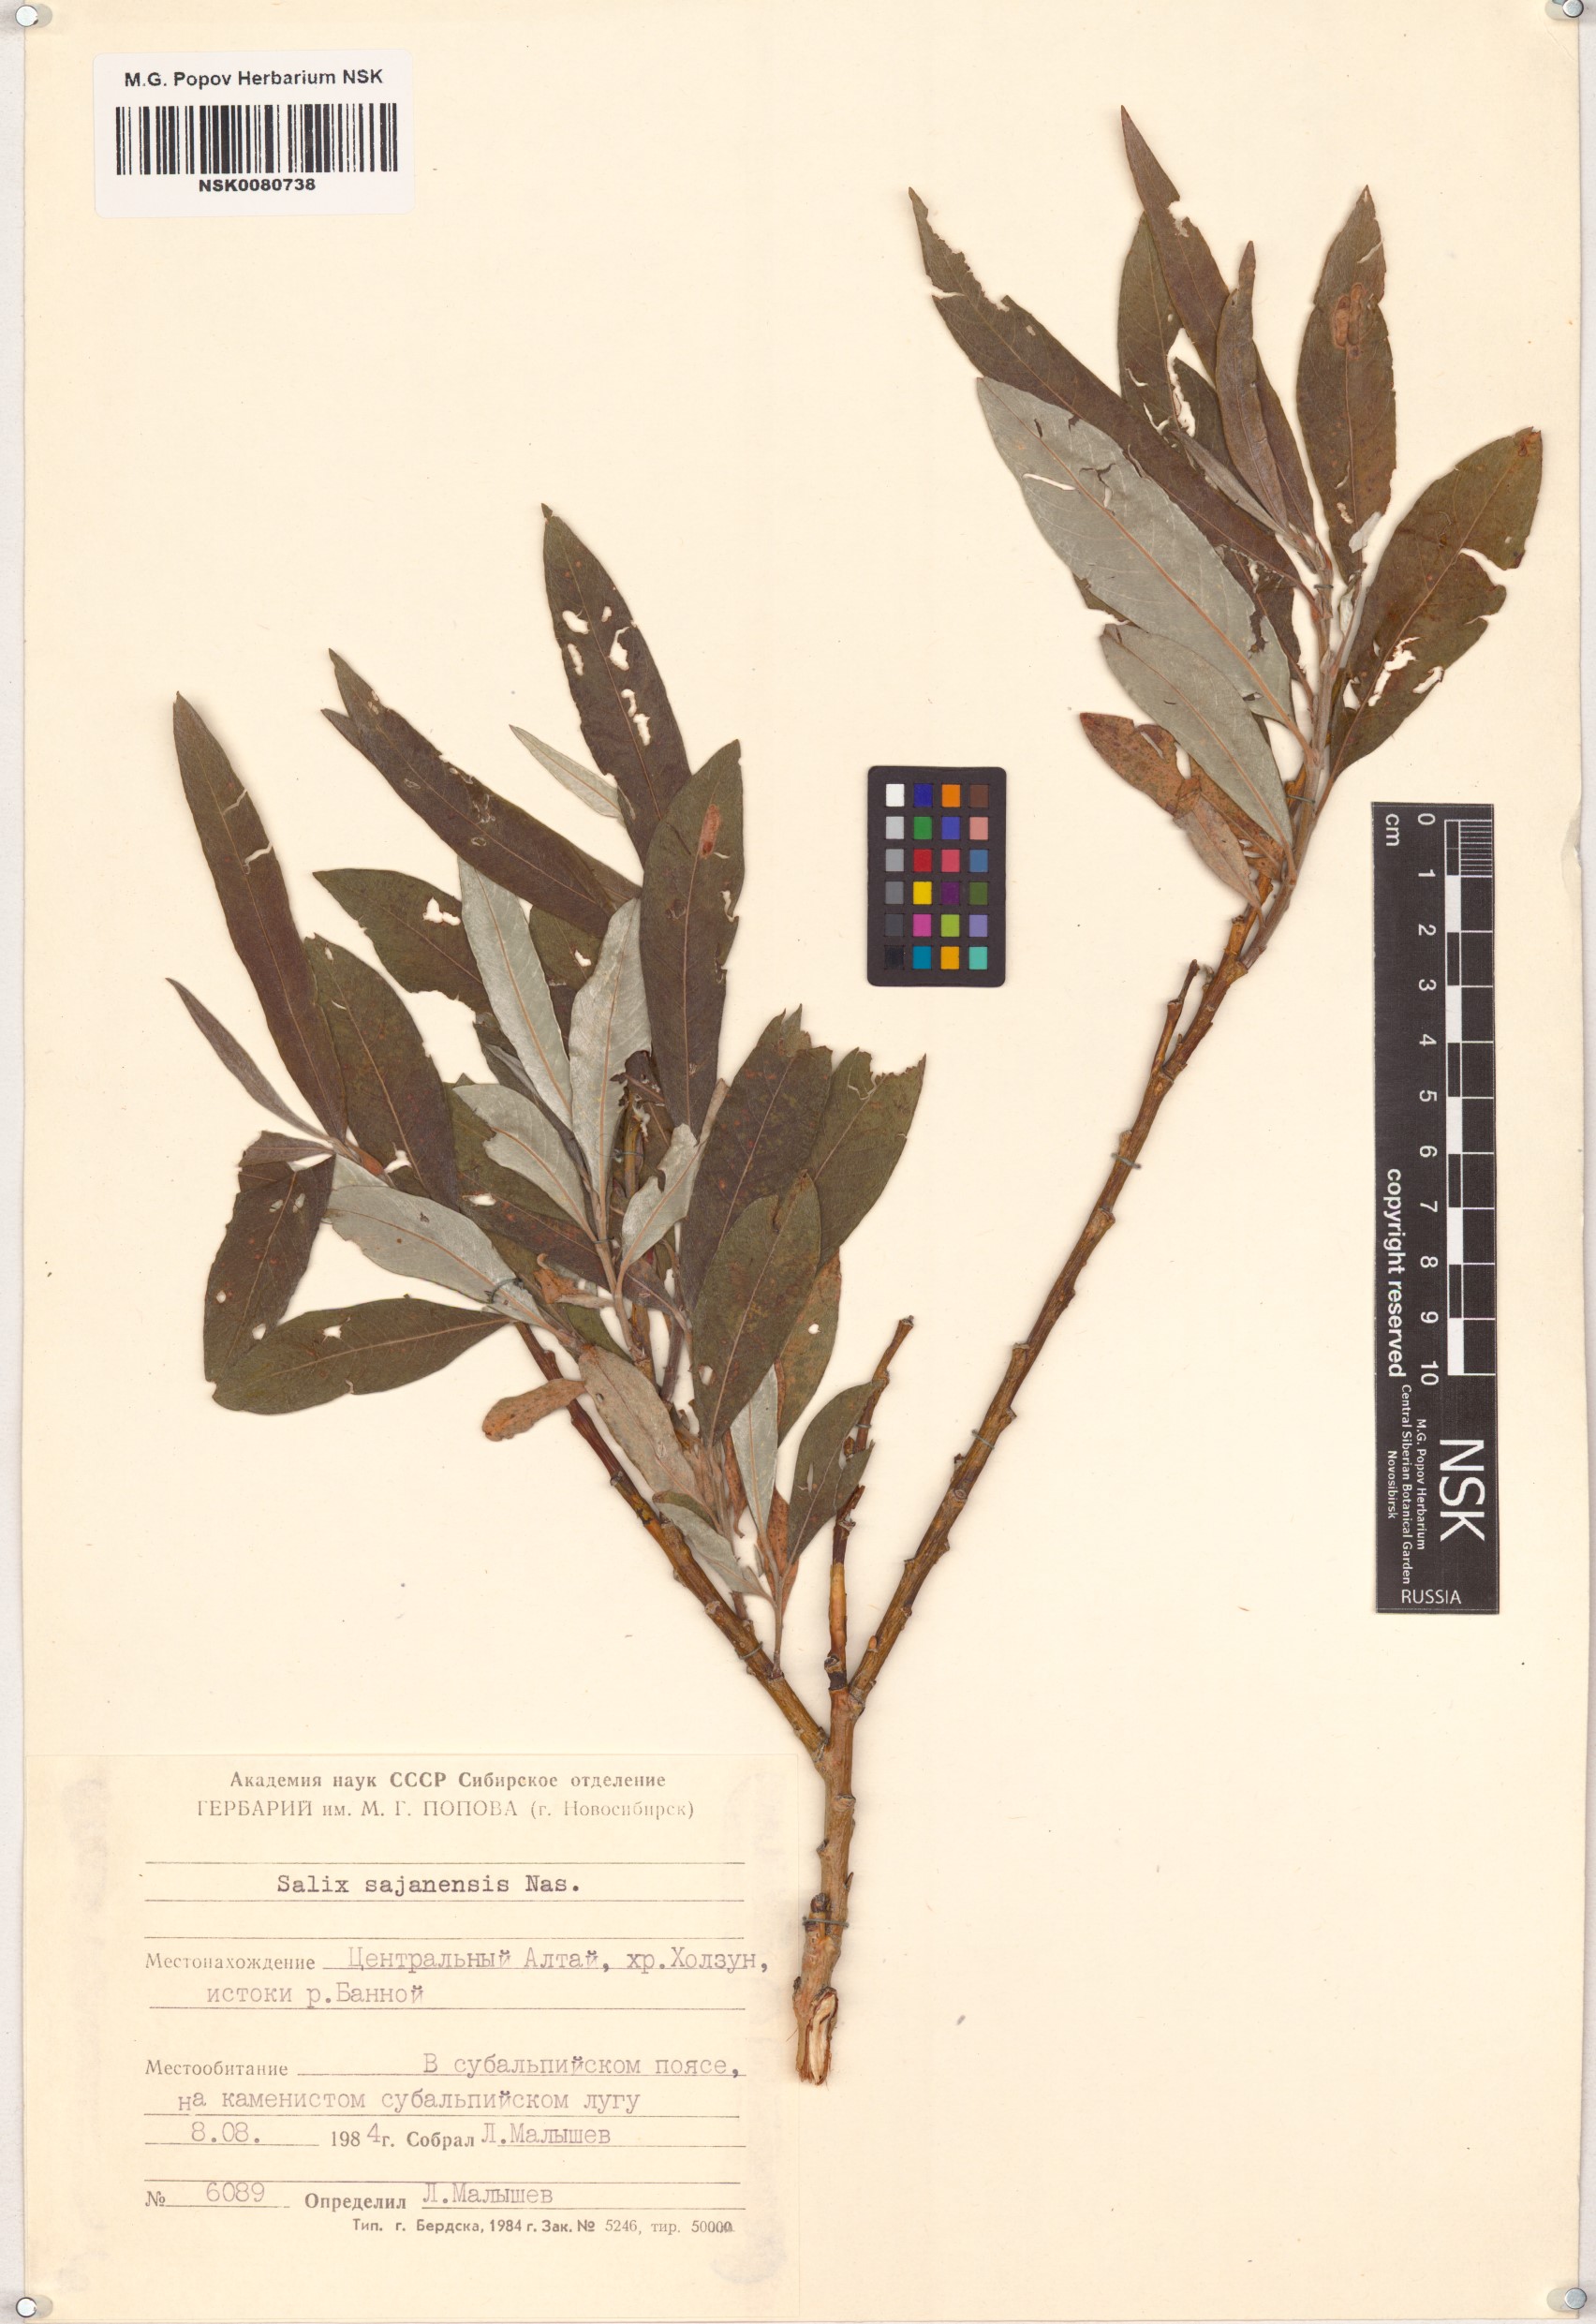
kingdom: Plantae
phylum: Tracheophyta
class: Magnoliopsida
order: Malpighiales
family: Salicaceae
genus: Salix
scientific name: Salix sajanensis
